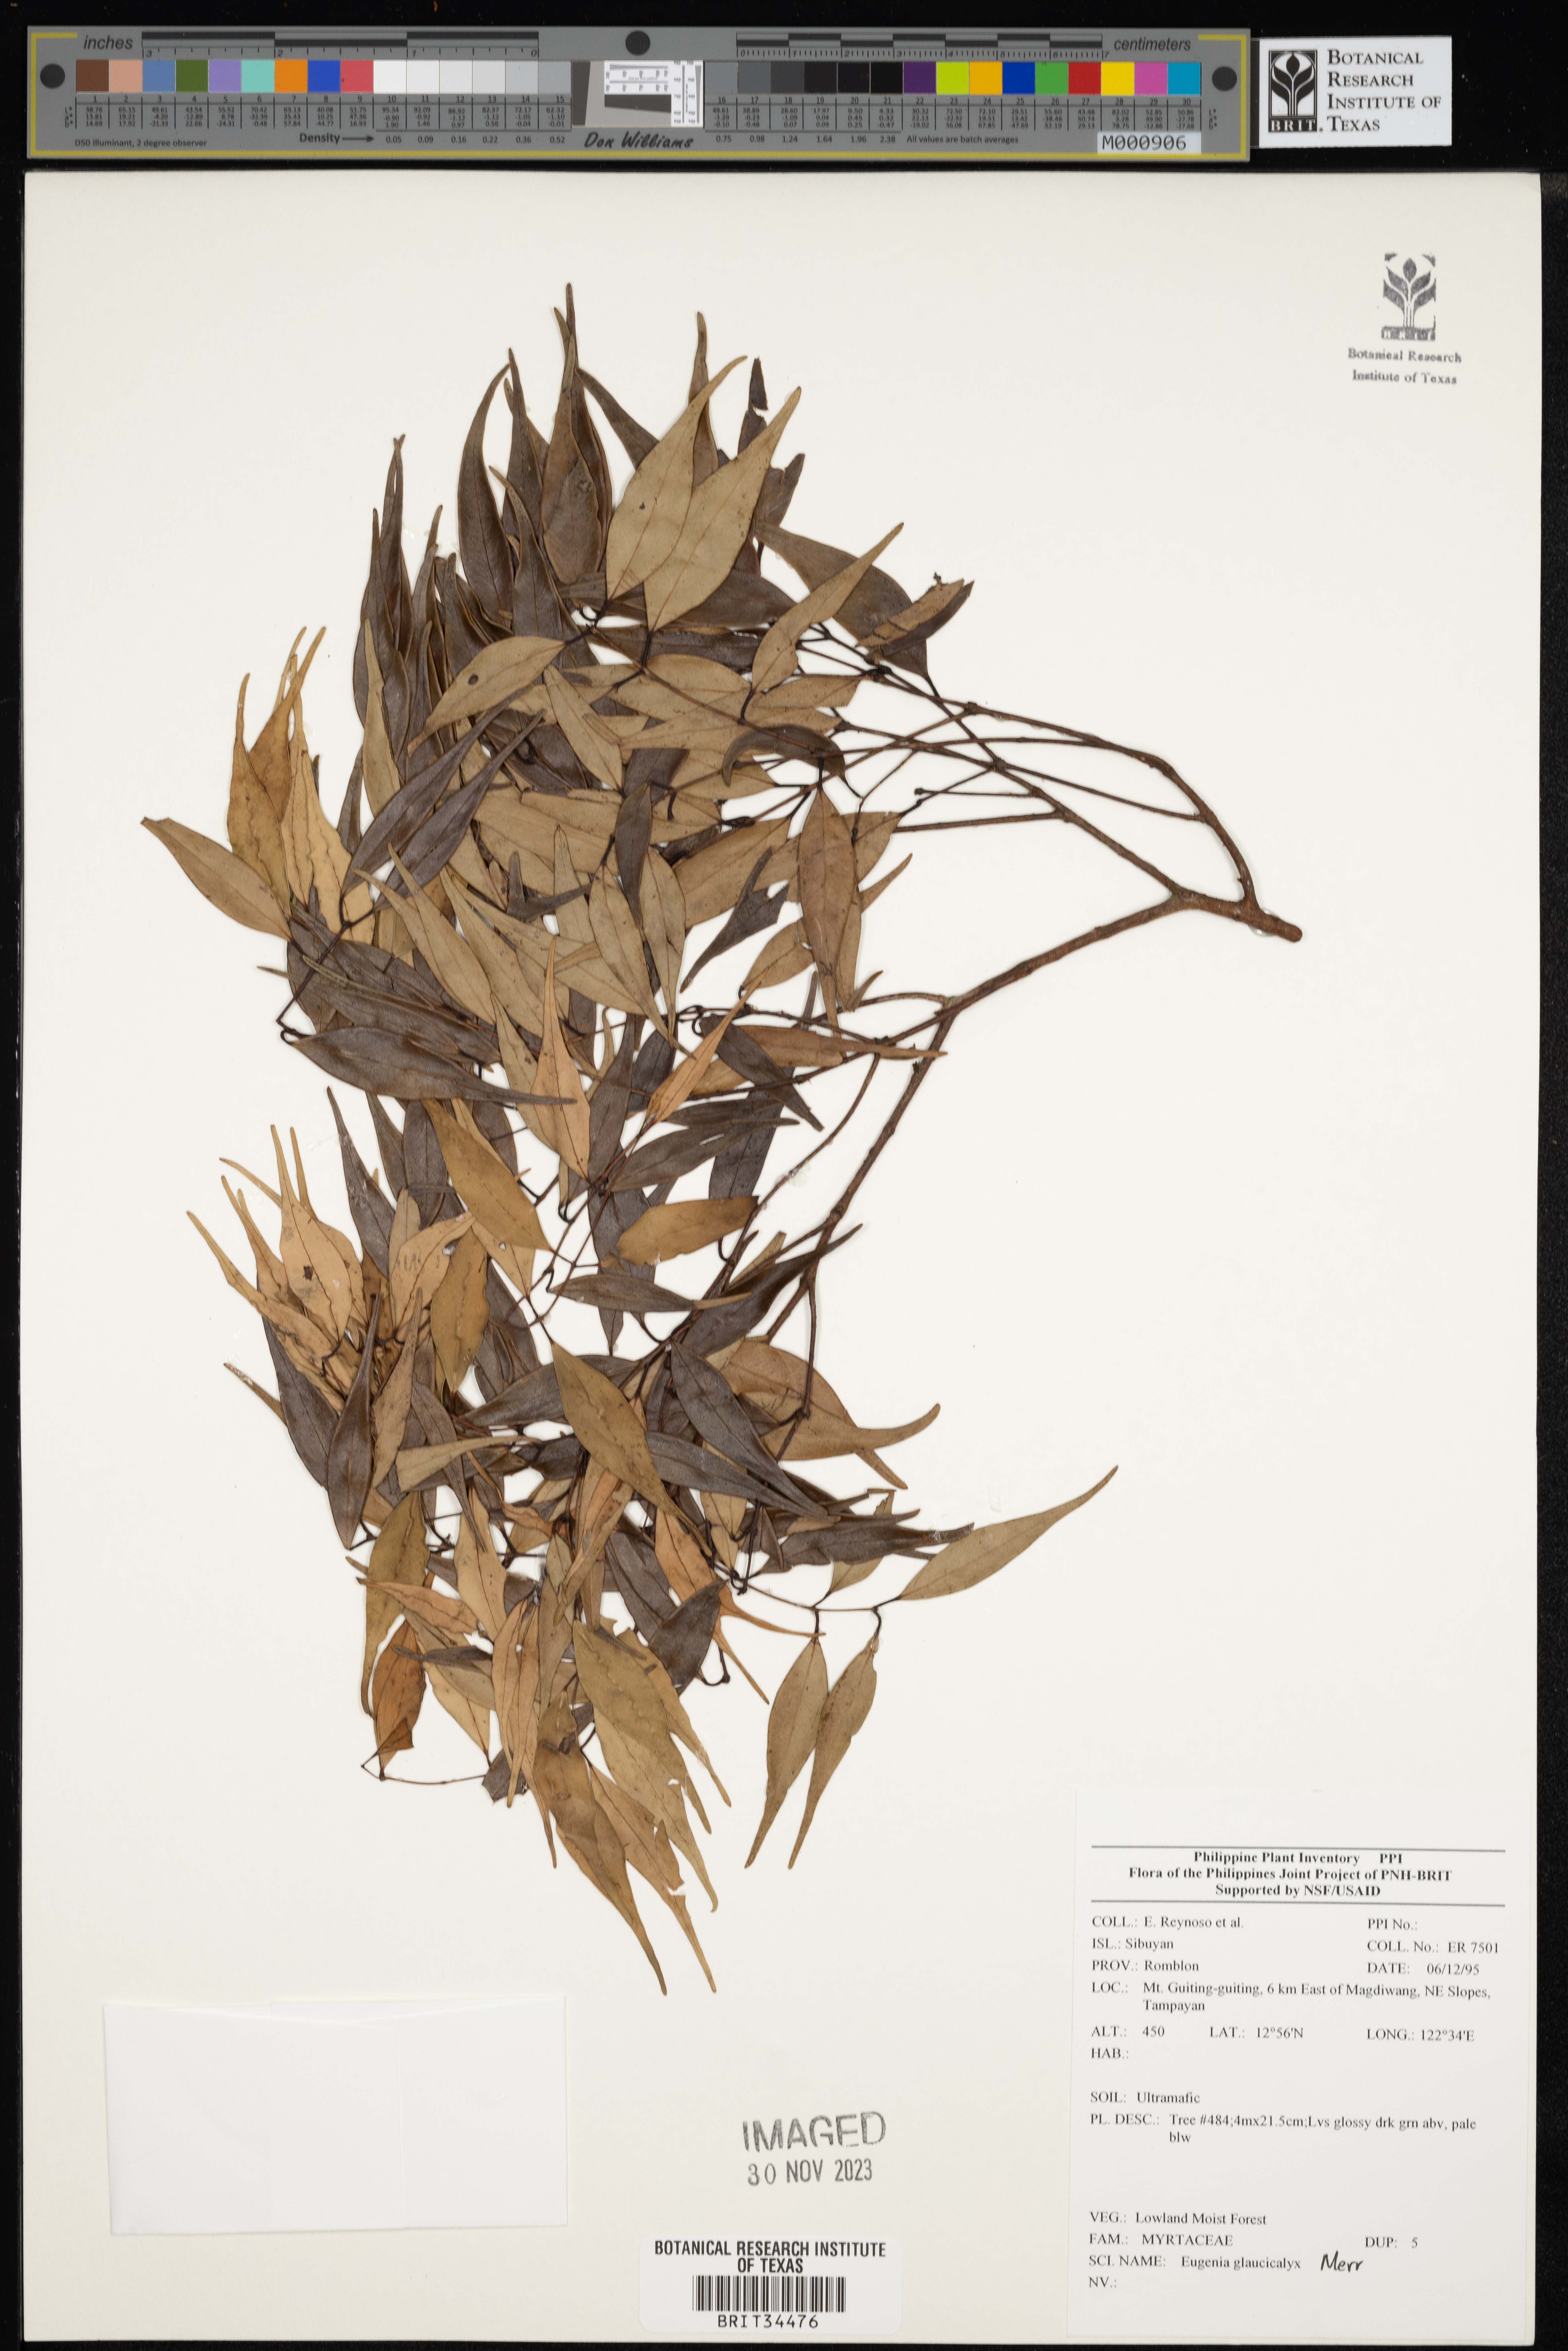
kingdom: Plantae
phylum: Tracheophyta
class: Magnoliopsida
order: Myrtales
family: Myrtaceae
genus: Eugenia
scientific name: Eugenia
